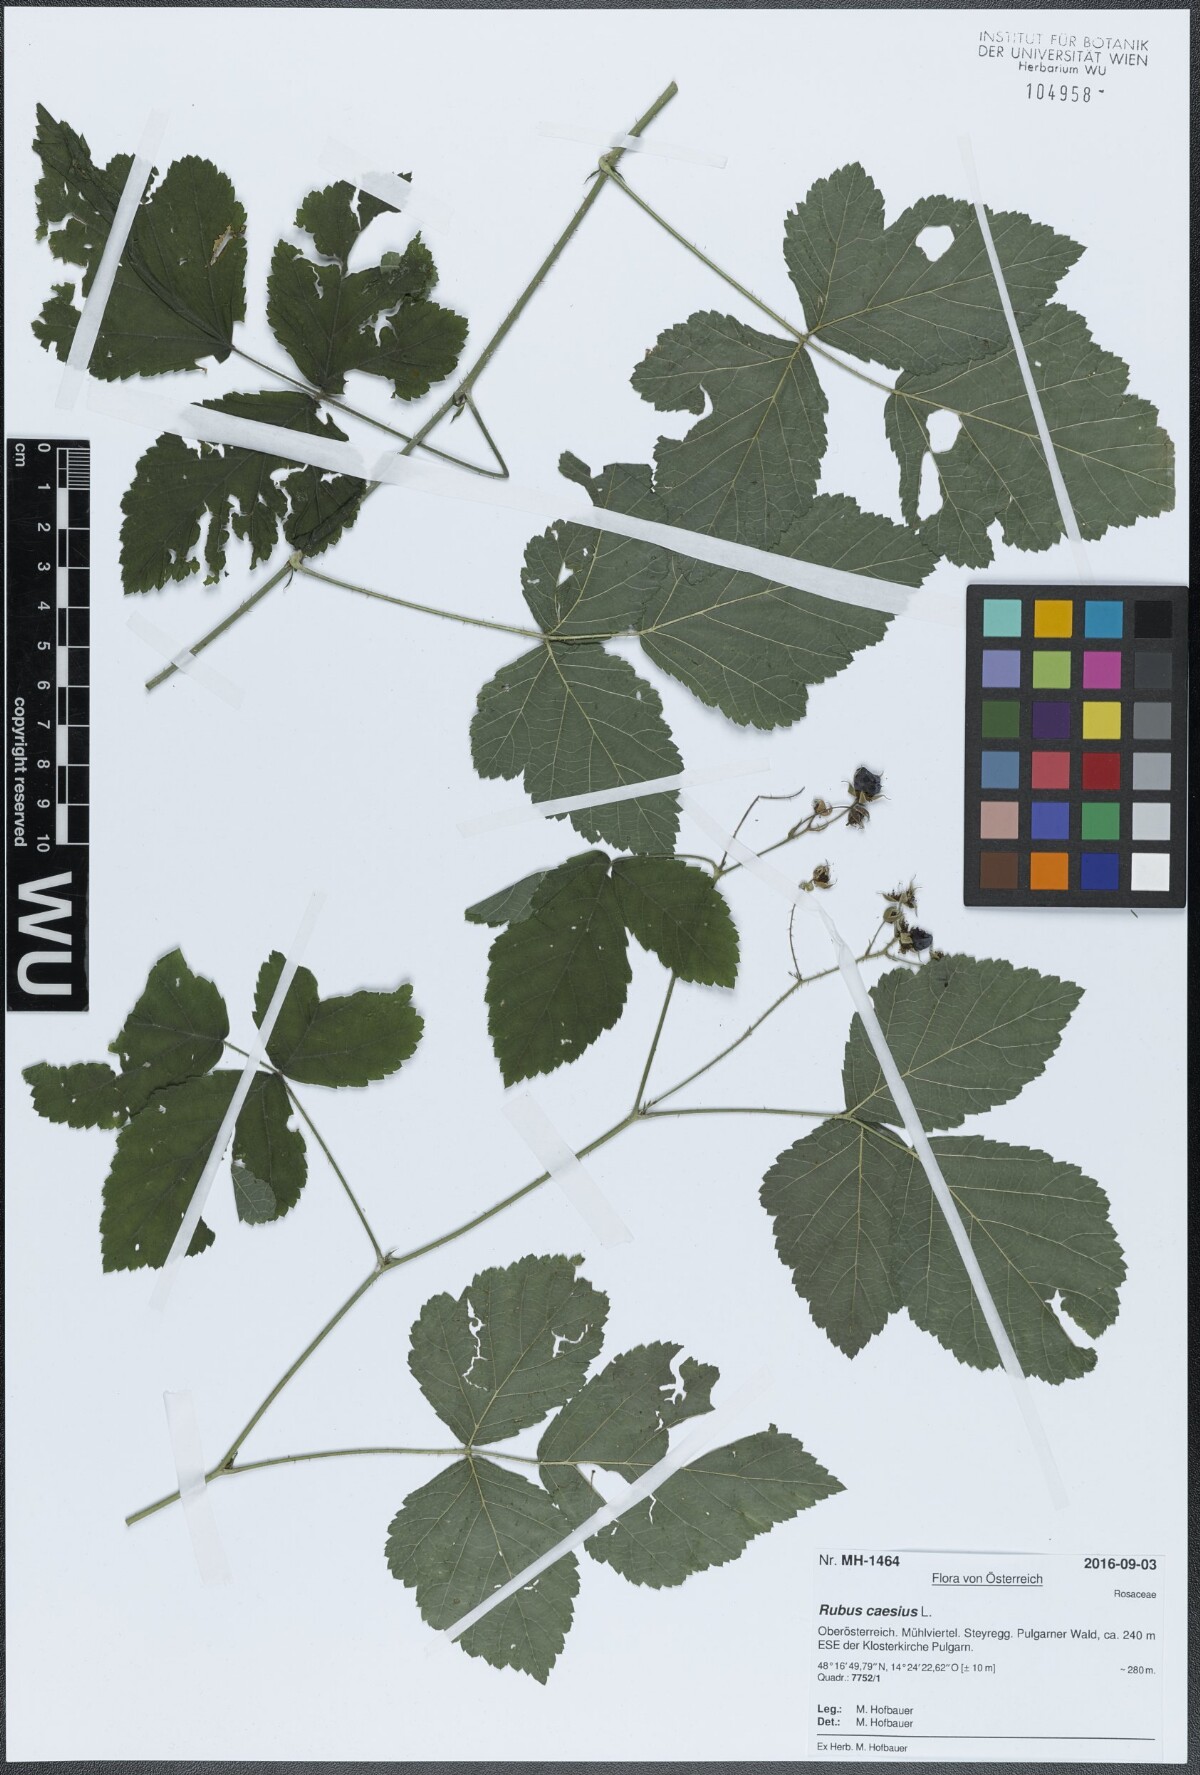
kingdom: Plantae
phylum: Tracheophyta
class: Magnoliopsida
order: Rosales
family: Rosaceae
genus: Rubus
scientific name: Rubus caesius
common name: Dewberry
